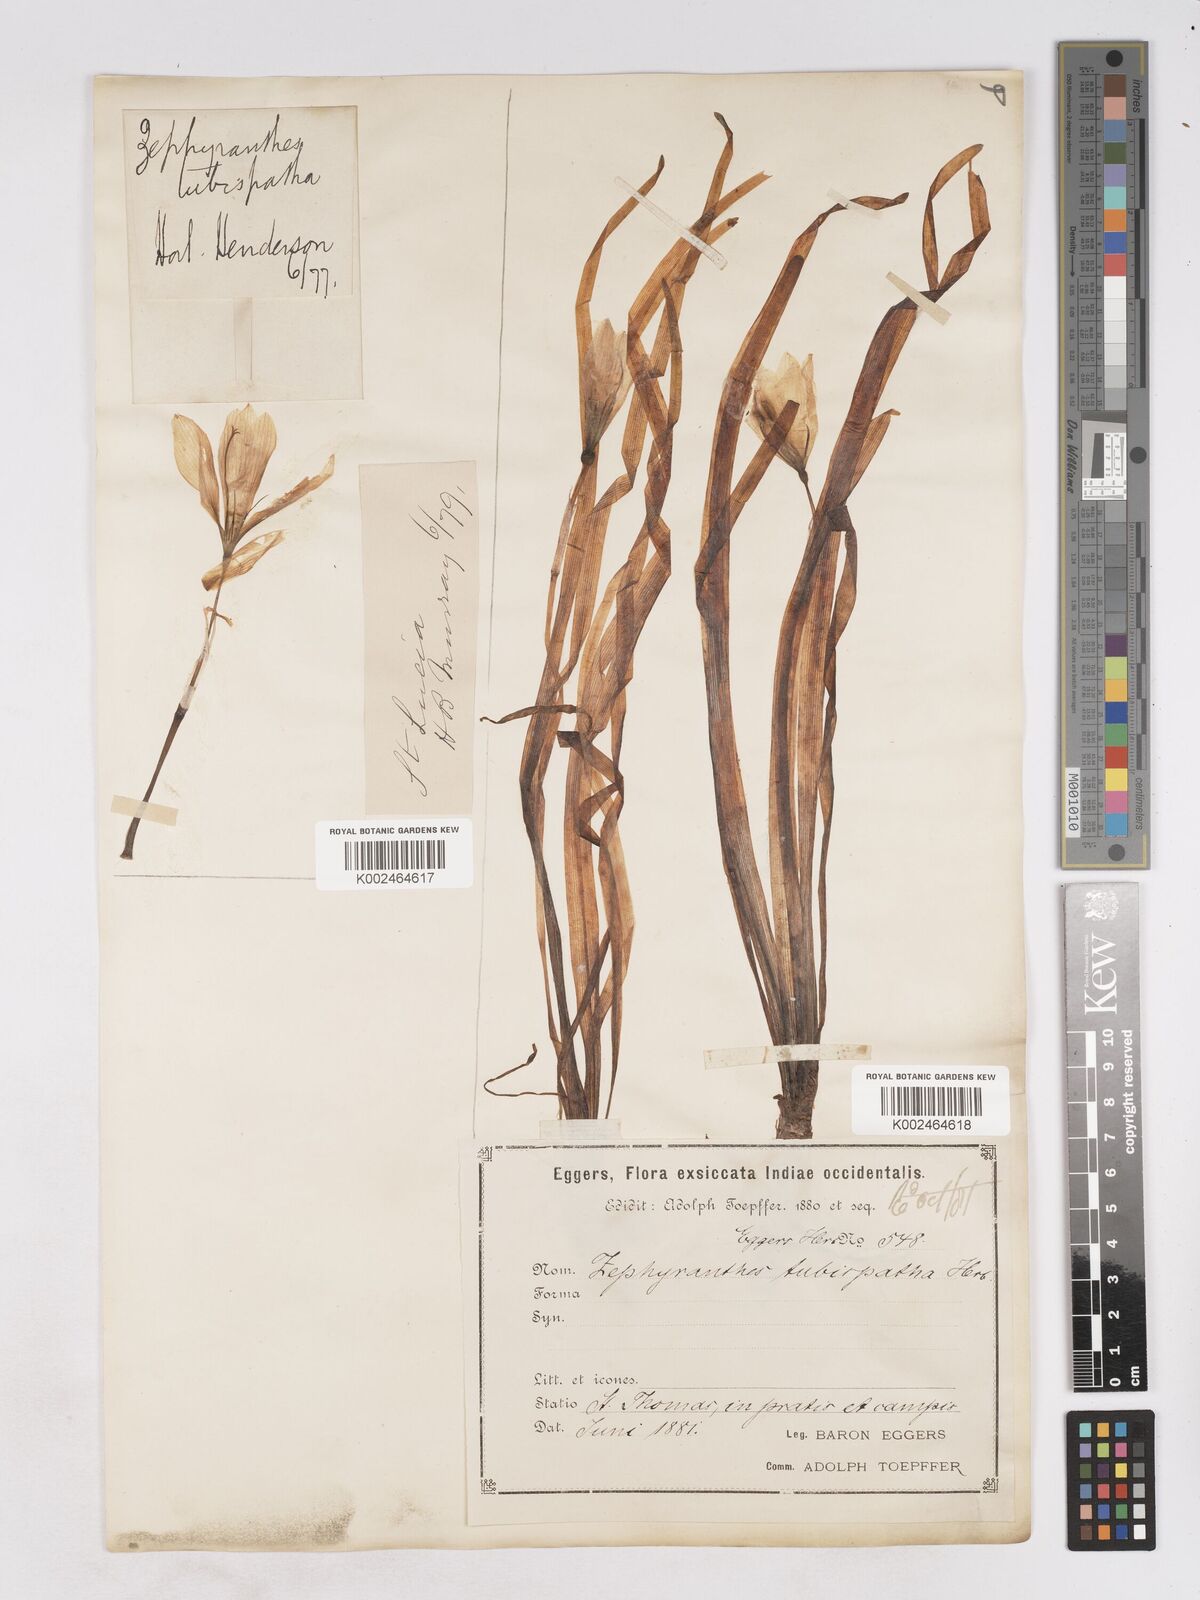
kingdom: Plantae
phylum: Tracheophyta
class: Liliopsida
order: Asparagales
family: Amaryllidaceae
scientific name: Amaryllidaceae
